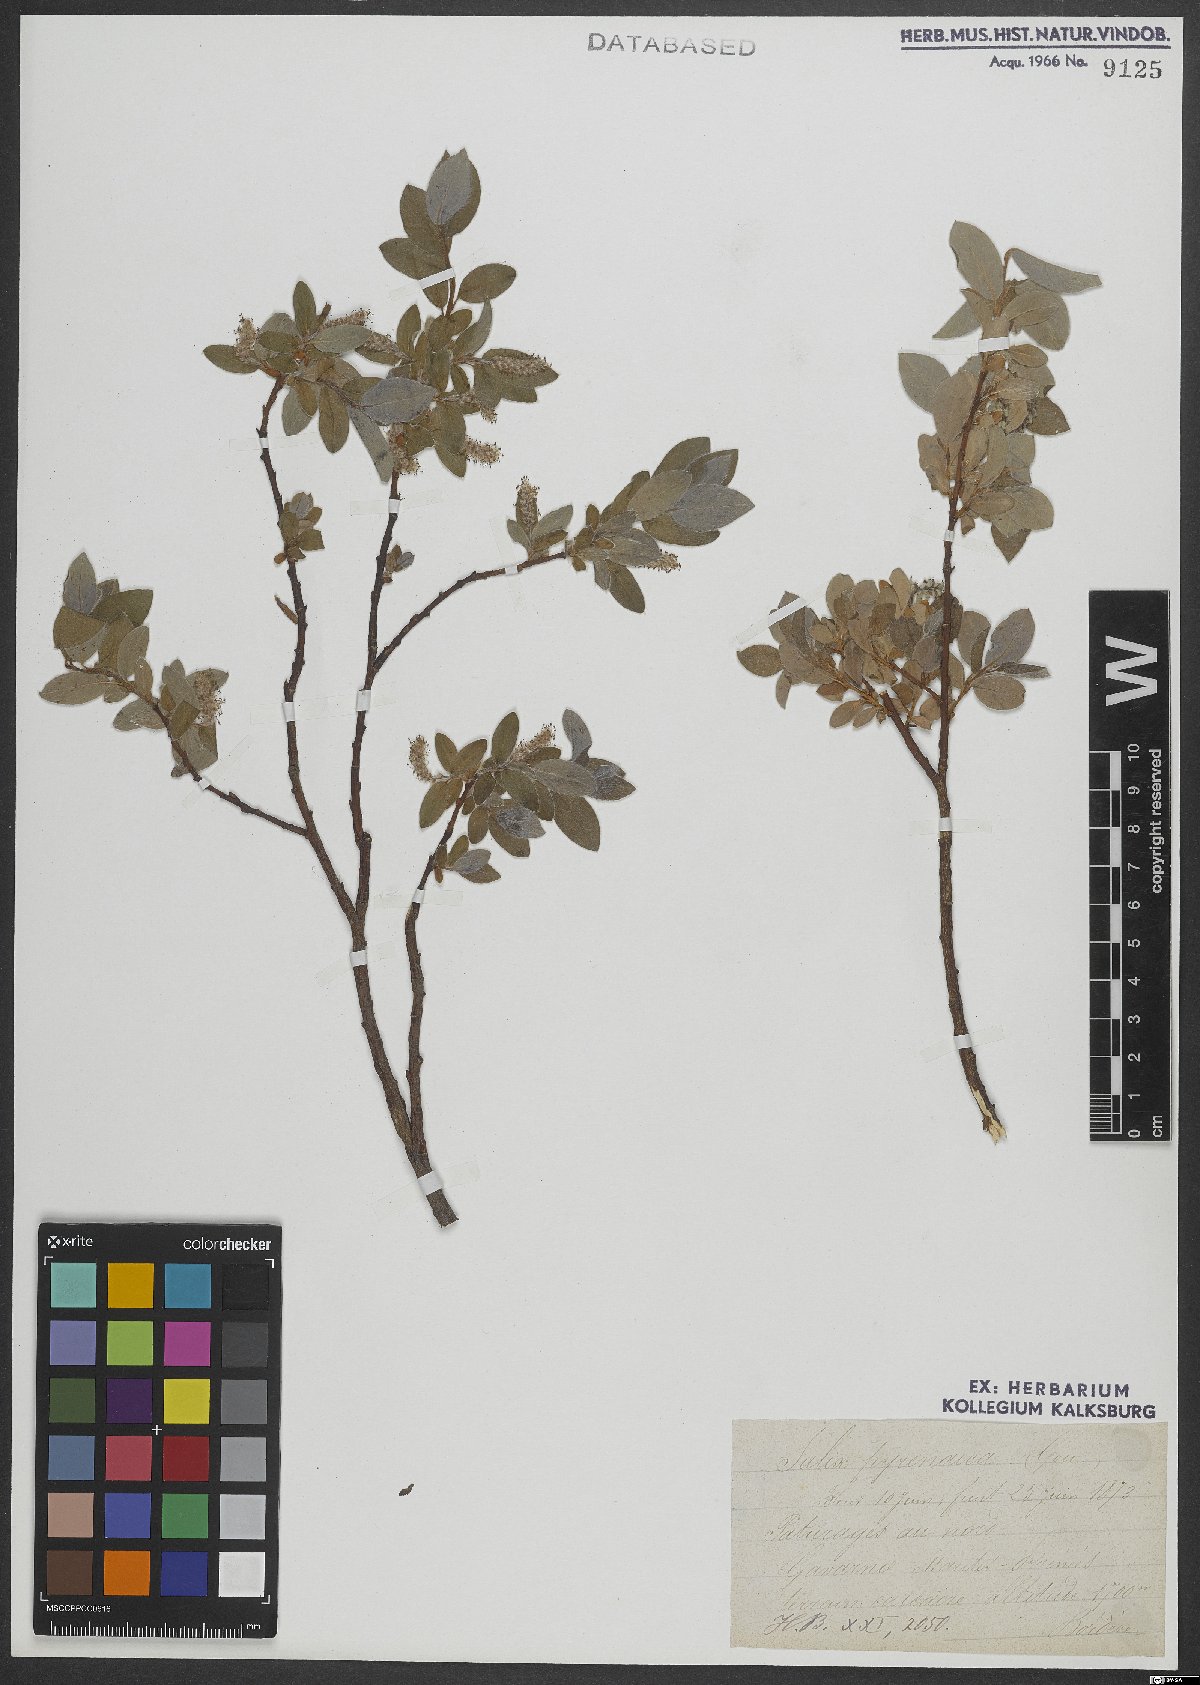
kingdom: Plantae
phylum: Tracheophyta
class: Magnoliopsida
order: Malpighiales
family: Salicaceae
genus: Salix
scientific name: Salix pyrenaica
